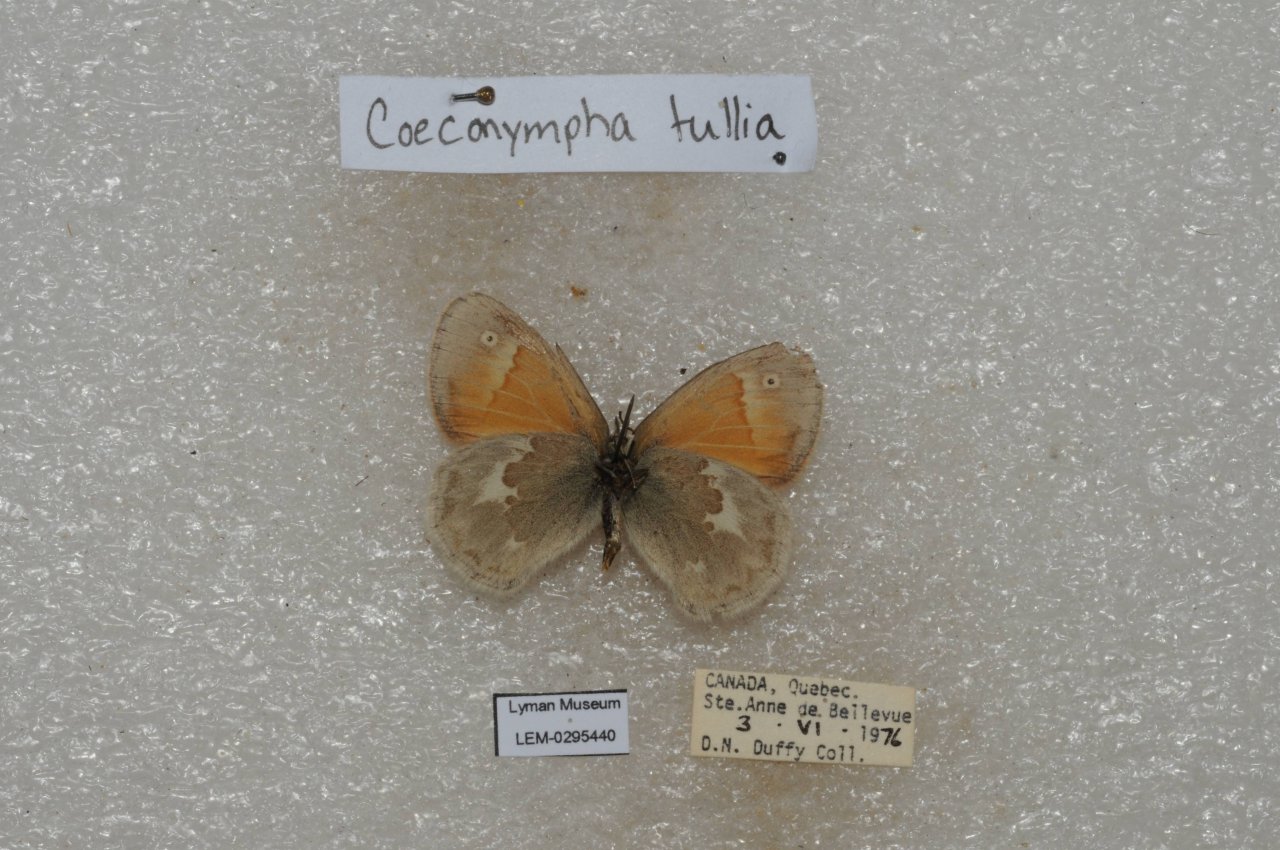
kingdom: Animalia
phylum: Arthropoda
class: Insecta
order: Lepidoptera
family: Nymphalidae
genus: Coenonympha
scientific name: Coenonympha tullia
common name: Large Heath
